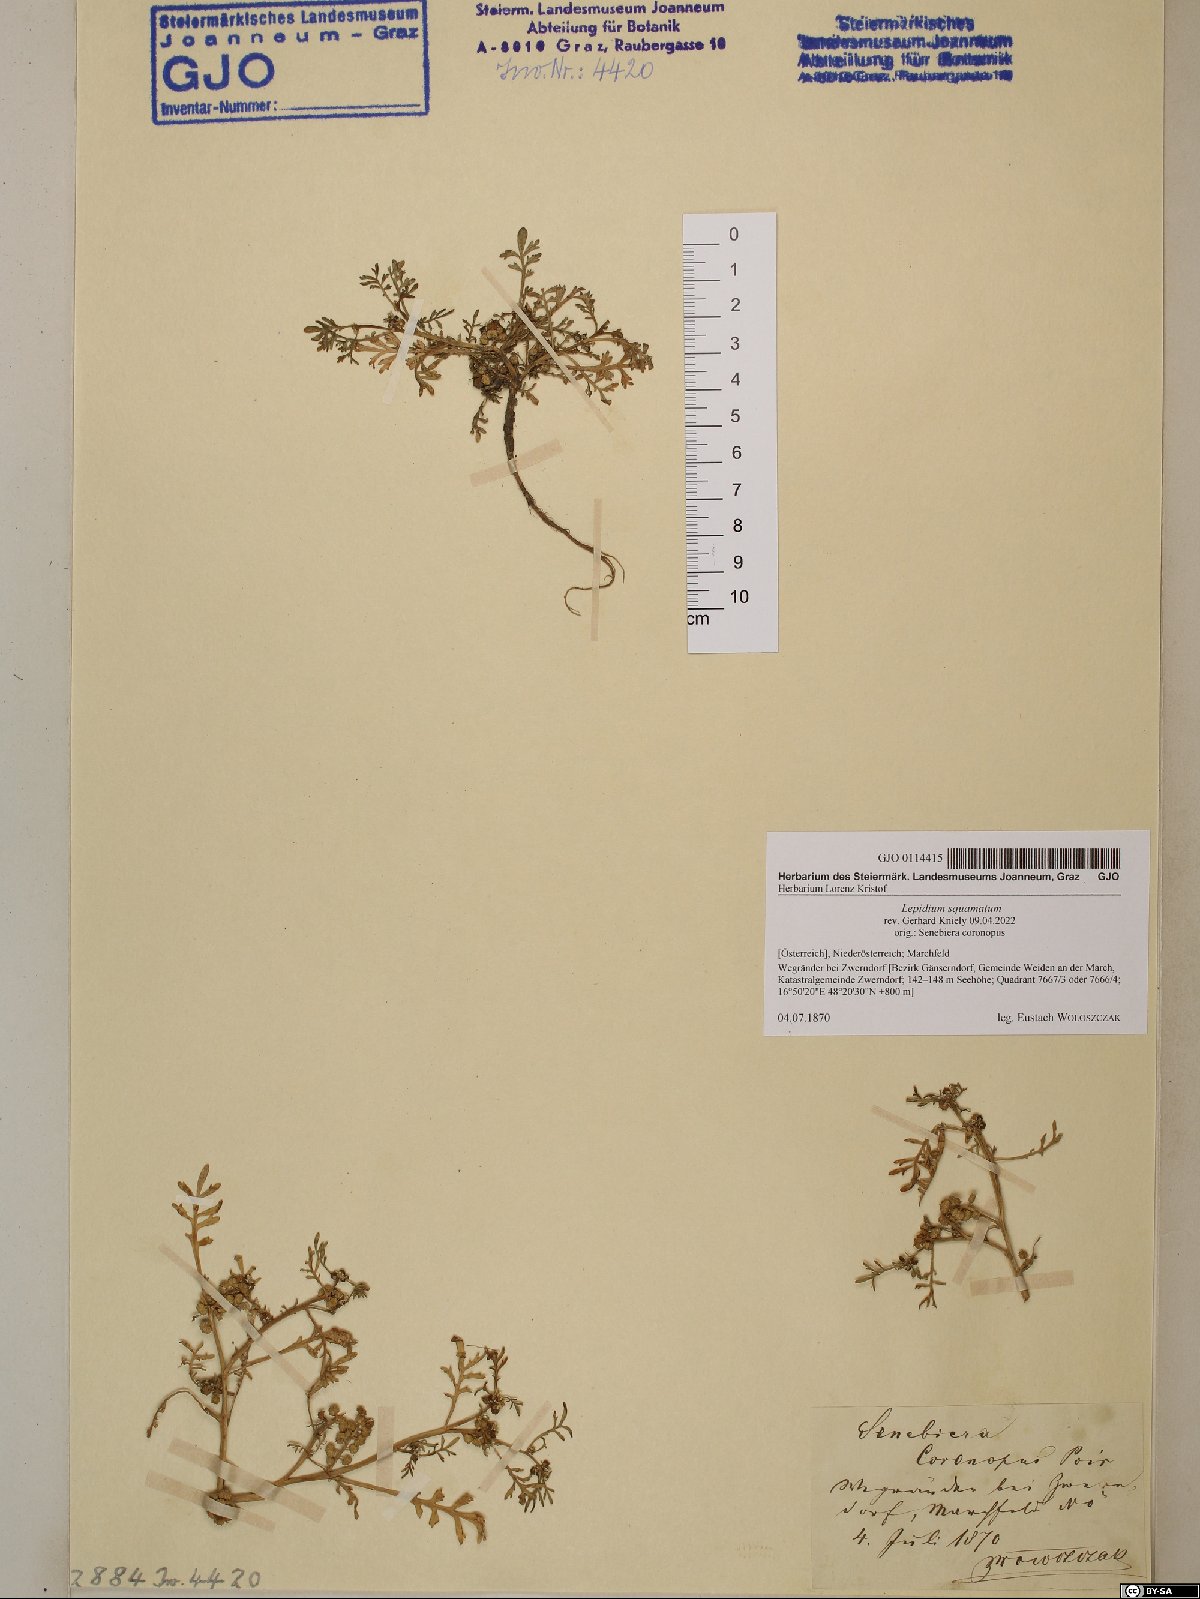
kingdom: Plantae
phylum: Tracheophyta
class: Magnoliopsida
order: Brassicales
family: Brassicaceae
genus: Lepidium
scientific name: Lepidium coronopus
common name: Greater swinecress
